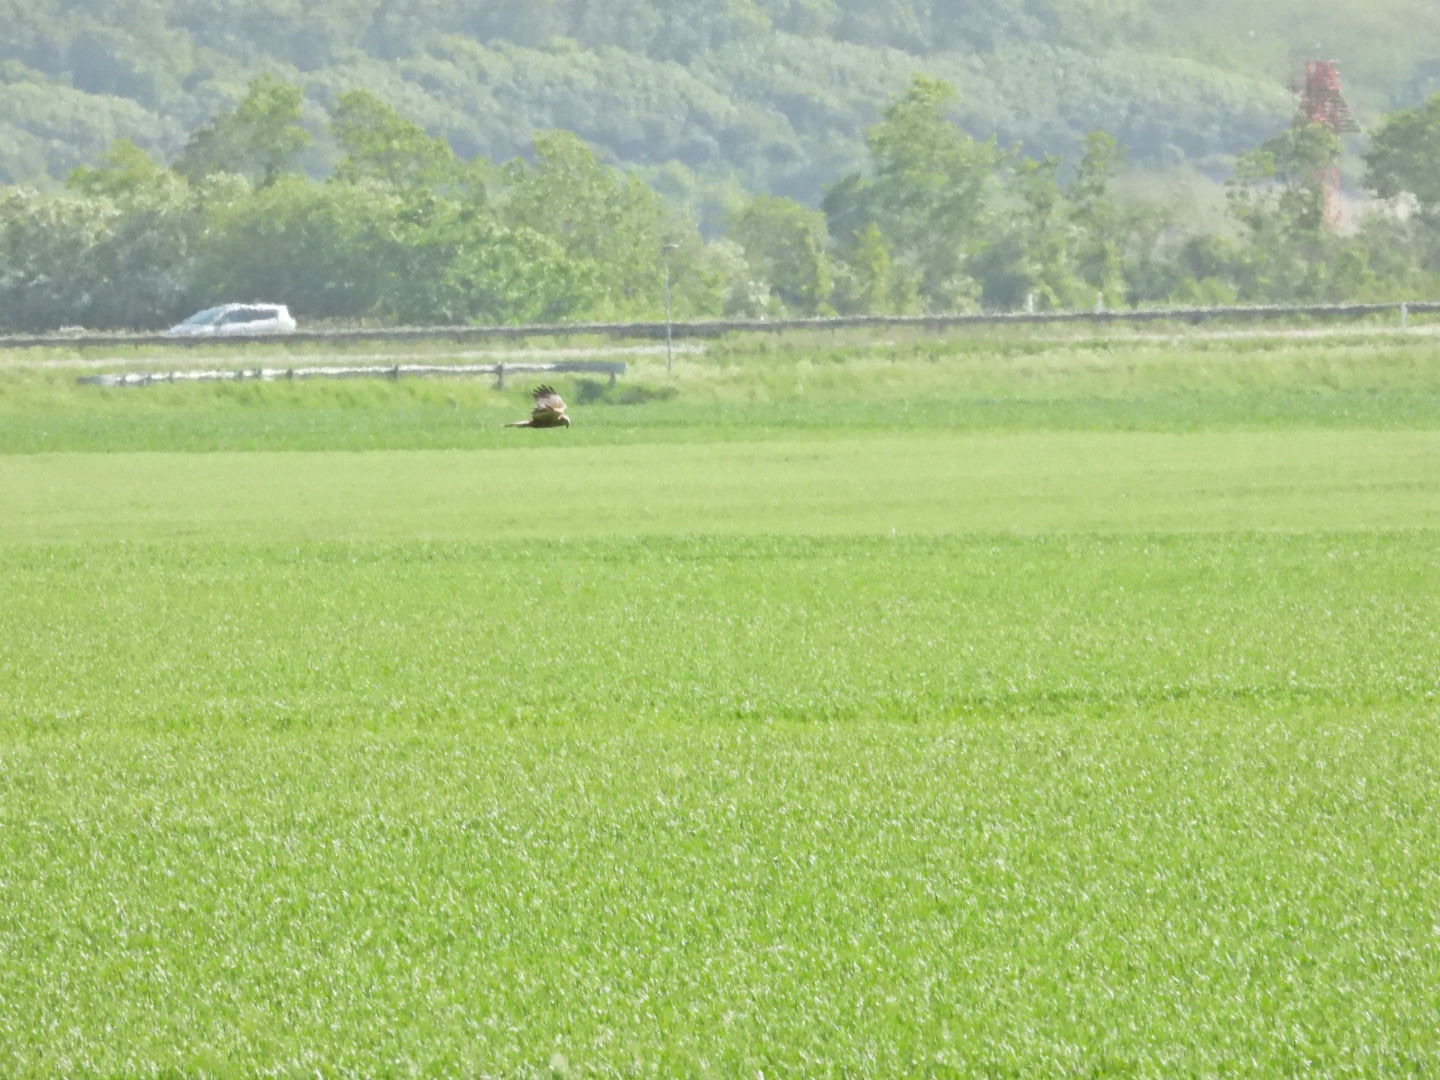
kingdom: Animalia
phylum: Chordata
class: Aves
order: Accipitriformes
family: Accipitridae
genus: Circus
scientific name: Circus aeruginosus
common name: Rørhøg
